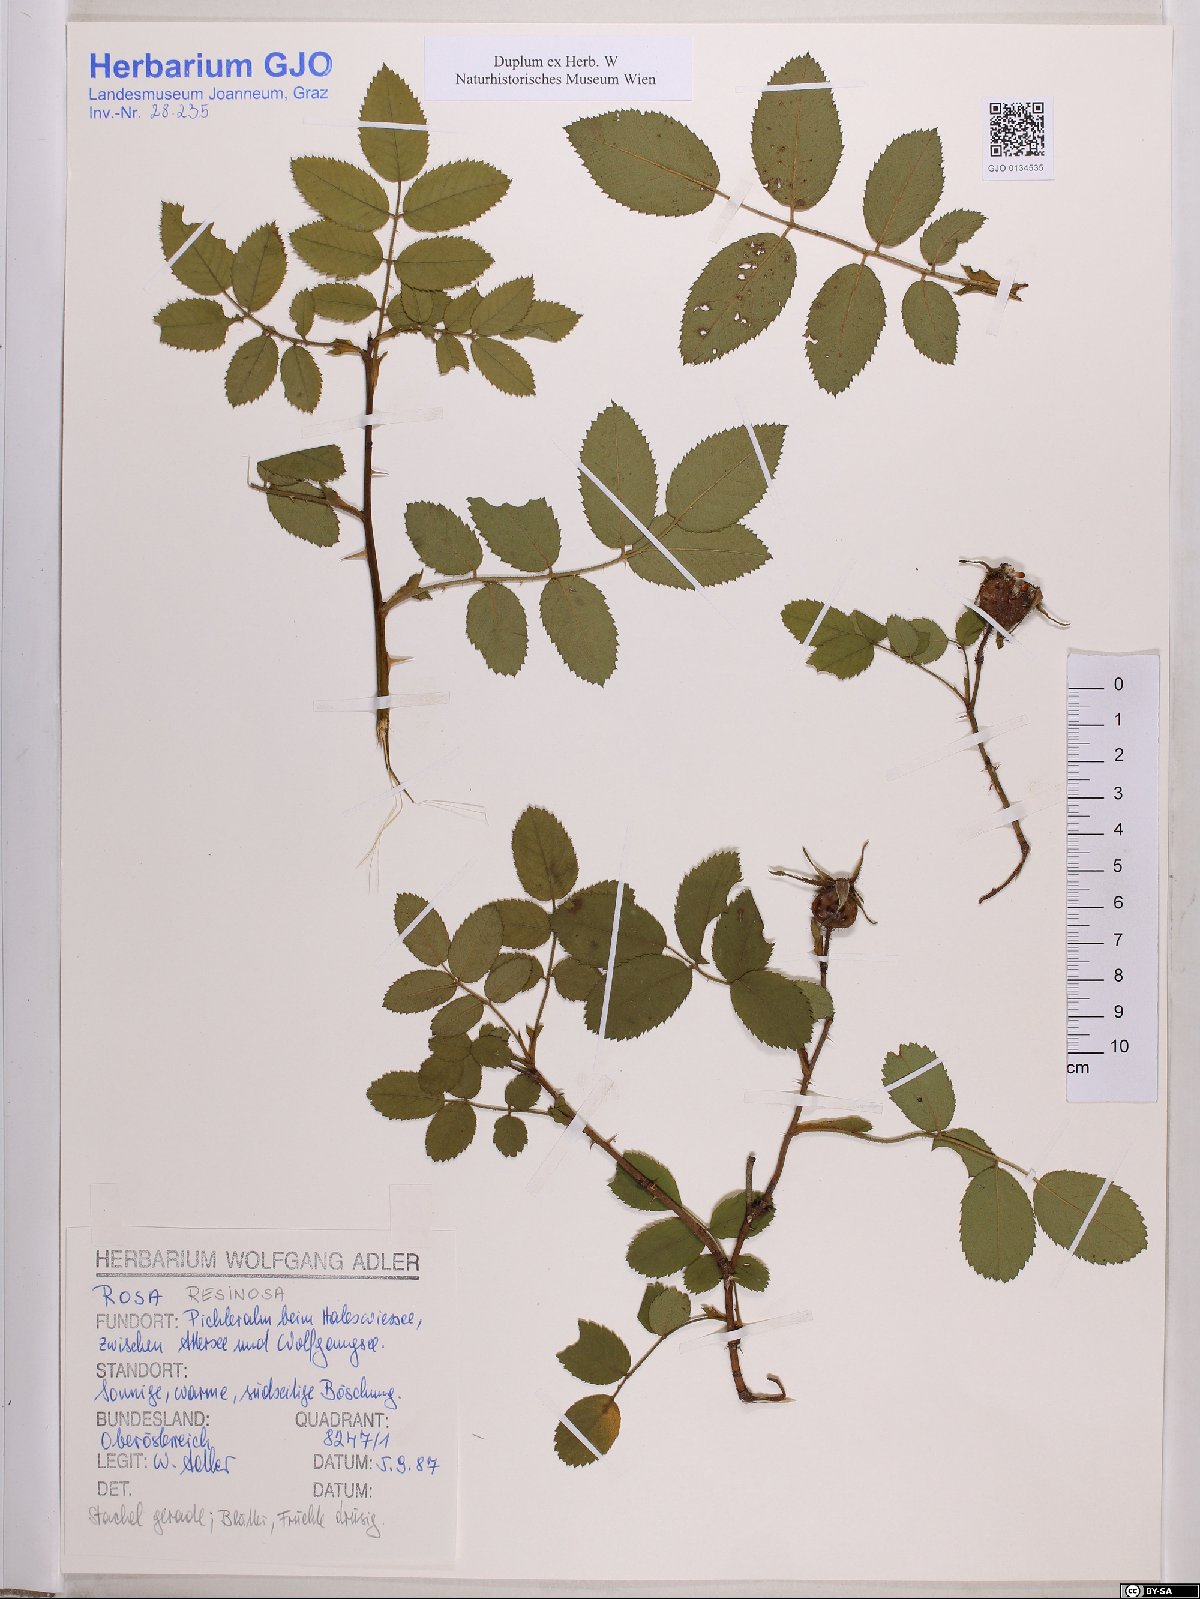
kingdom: Plantae
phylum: Tracheophyta
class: Magnoliopsida
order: Rosales
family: Rosaceae
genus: Rosa
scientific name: Rosa villosa
